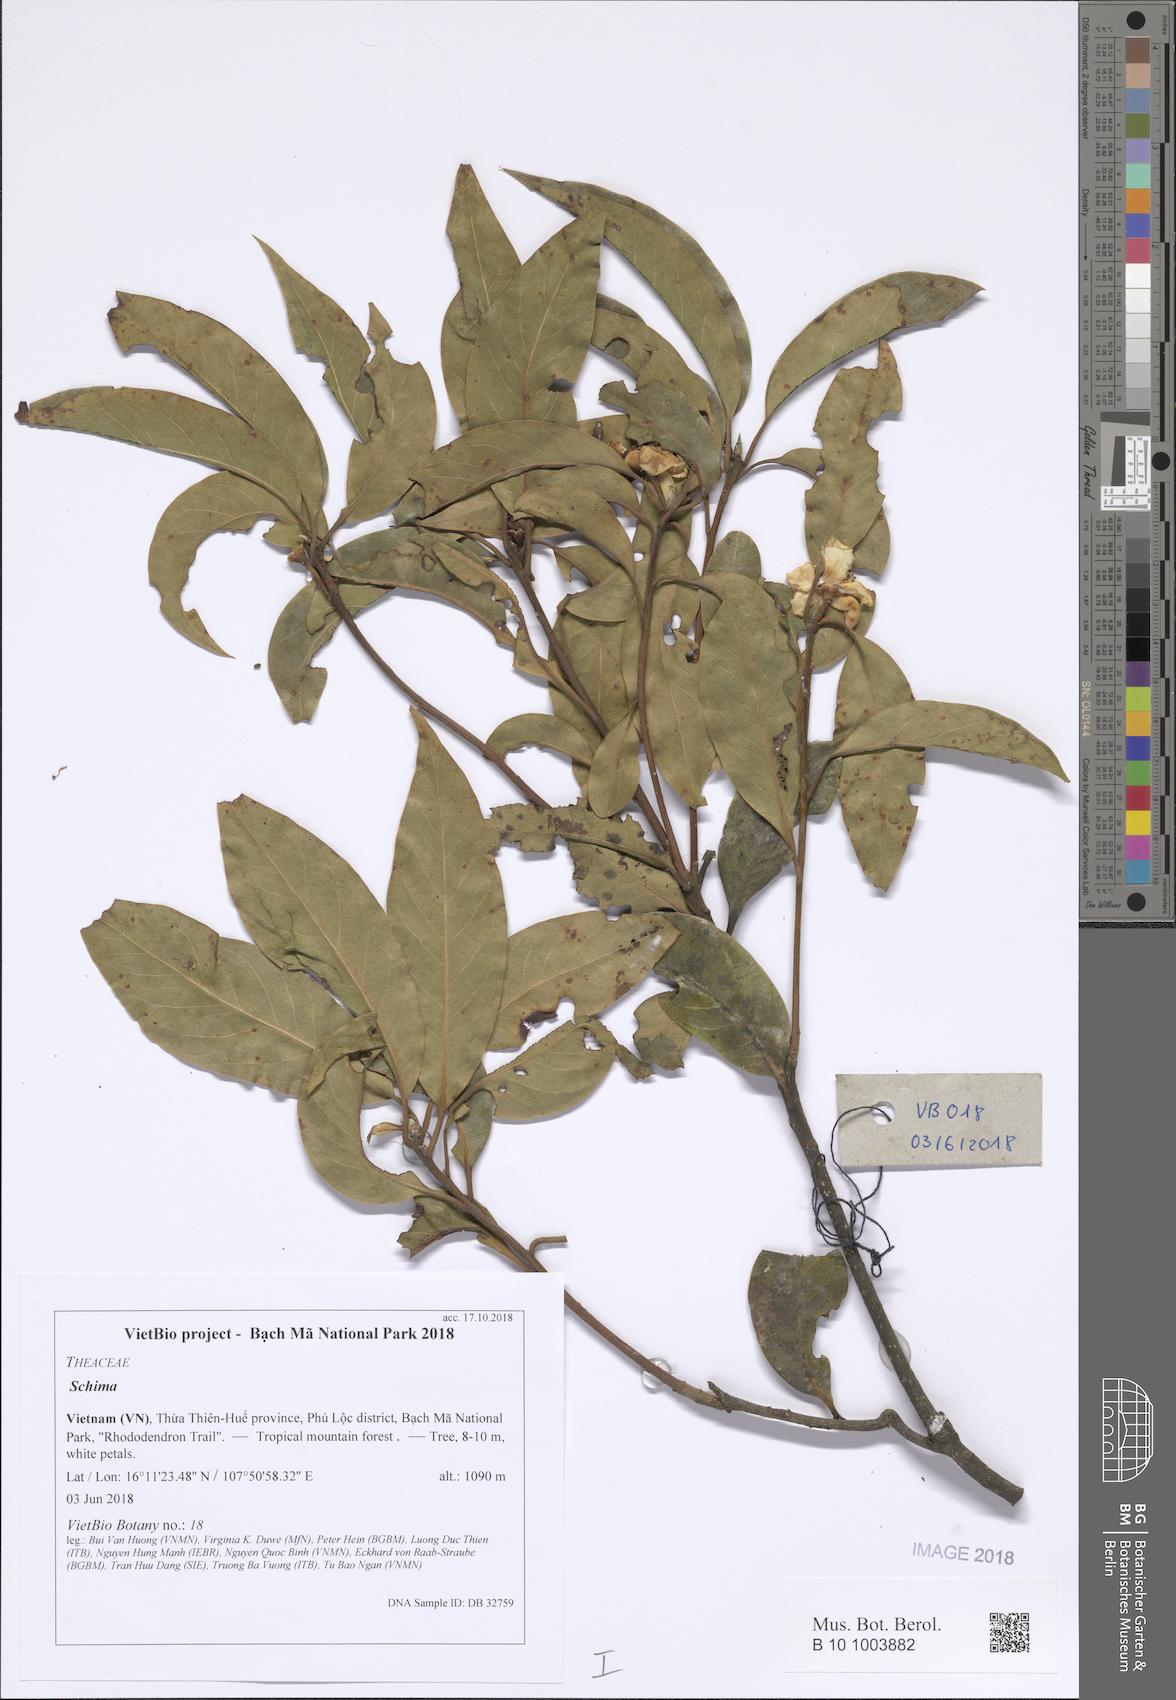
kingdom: Plantae
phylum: Tracheophyta
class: Magnoliopsida
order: Ericales
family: Theaceae
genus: Schima
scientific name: Schima
